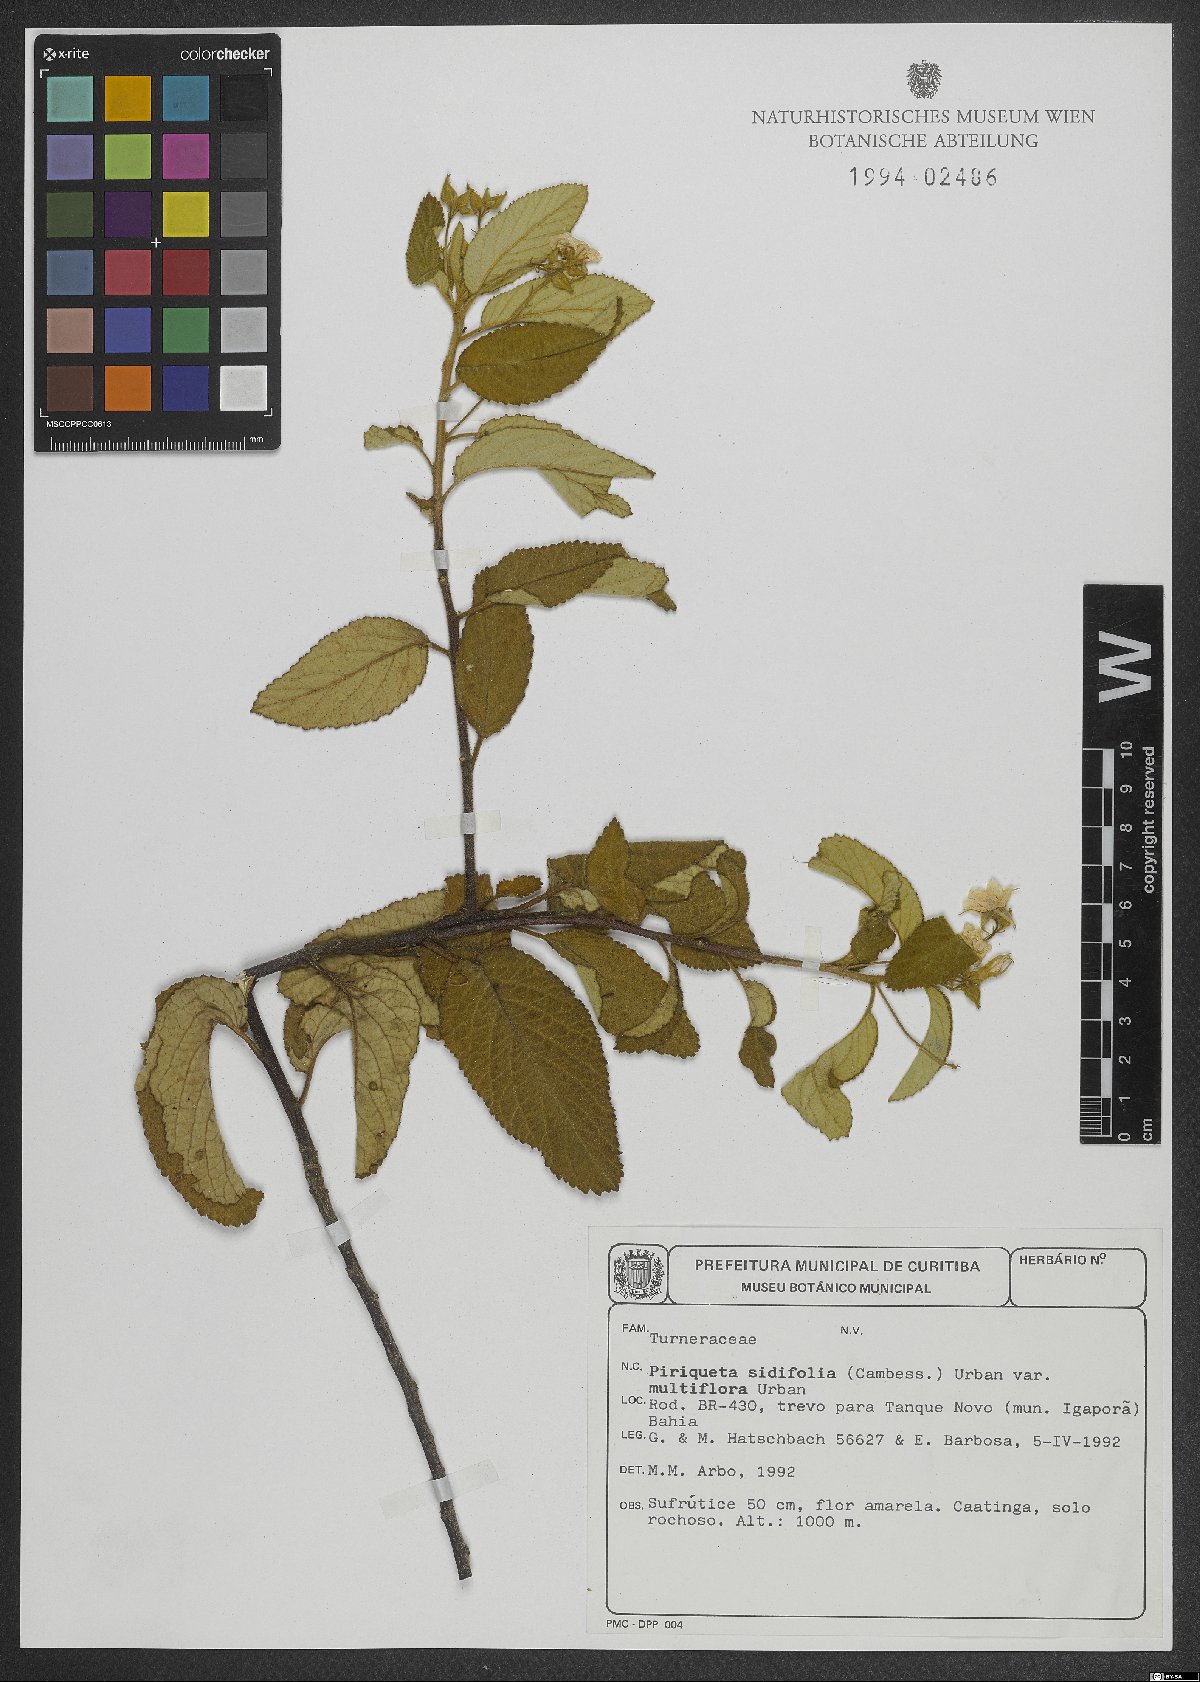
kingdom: Plantae
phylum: Tracheophyta
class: Magnoliopsida
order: Malpighiales
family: Turneraceae
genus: Piriqueta
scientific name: Piriqueta sidifolia
